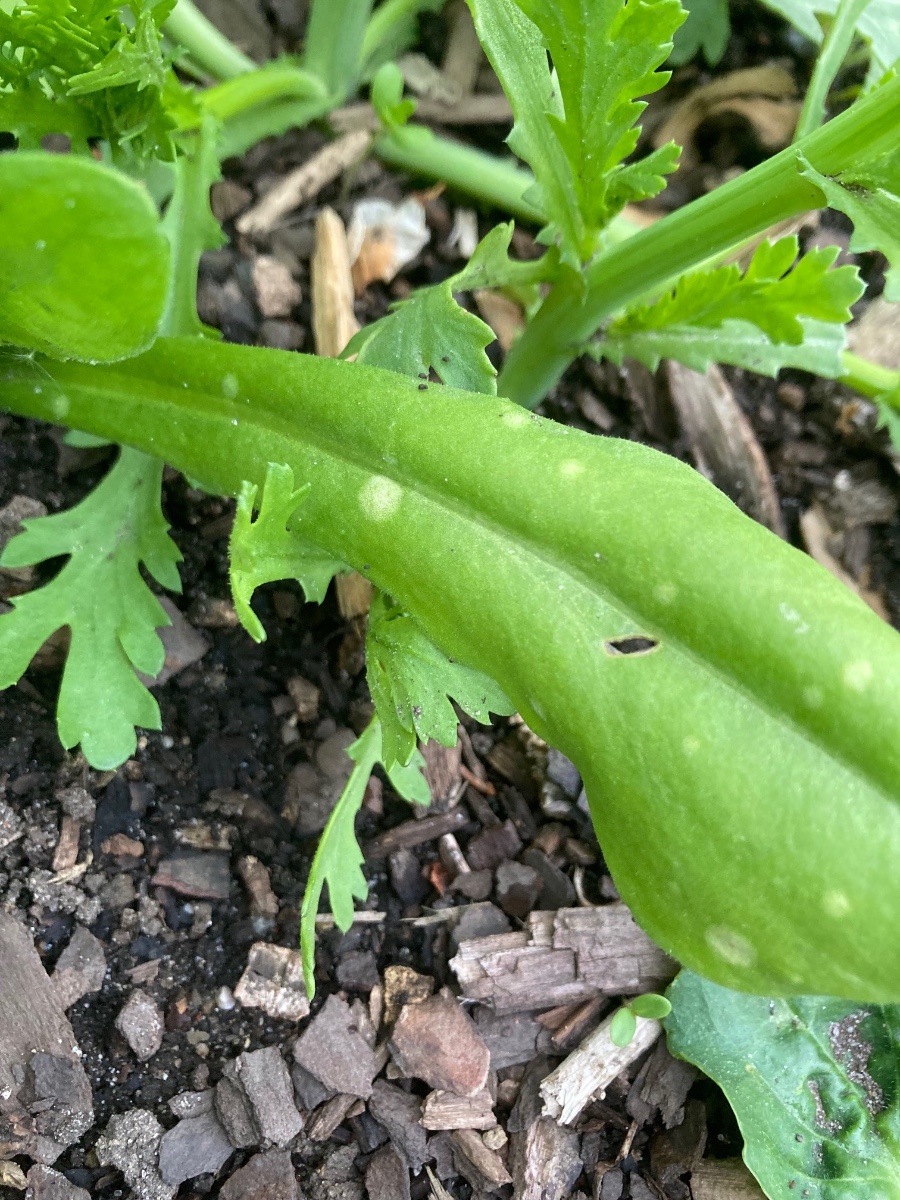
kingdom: Fungi
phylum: Basidiomycota
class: Exobasidiomycetes
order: Entylomatales
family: Entylomataceae
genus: Entyloma
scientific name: Entyloma calendulae
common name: Calendula smut
